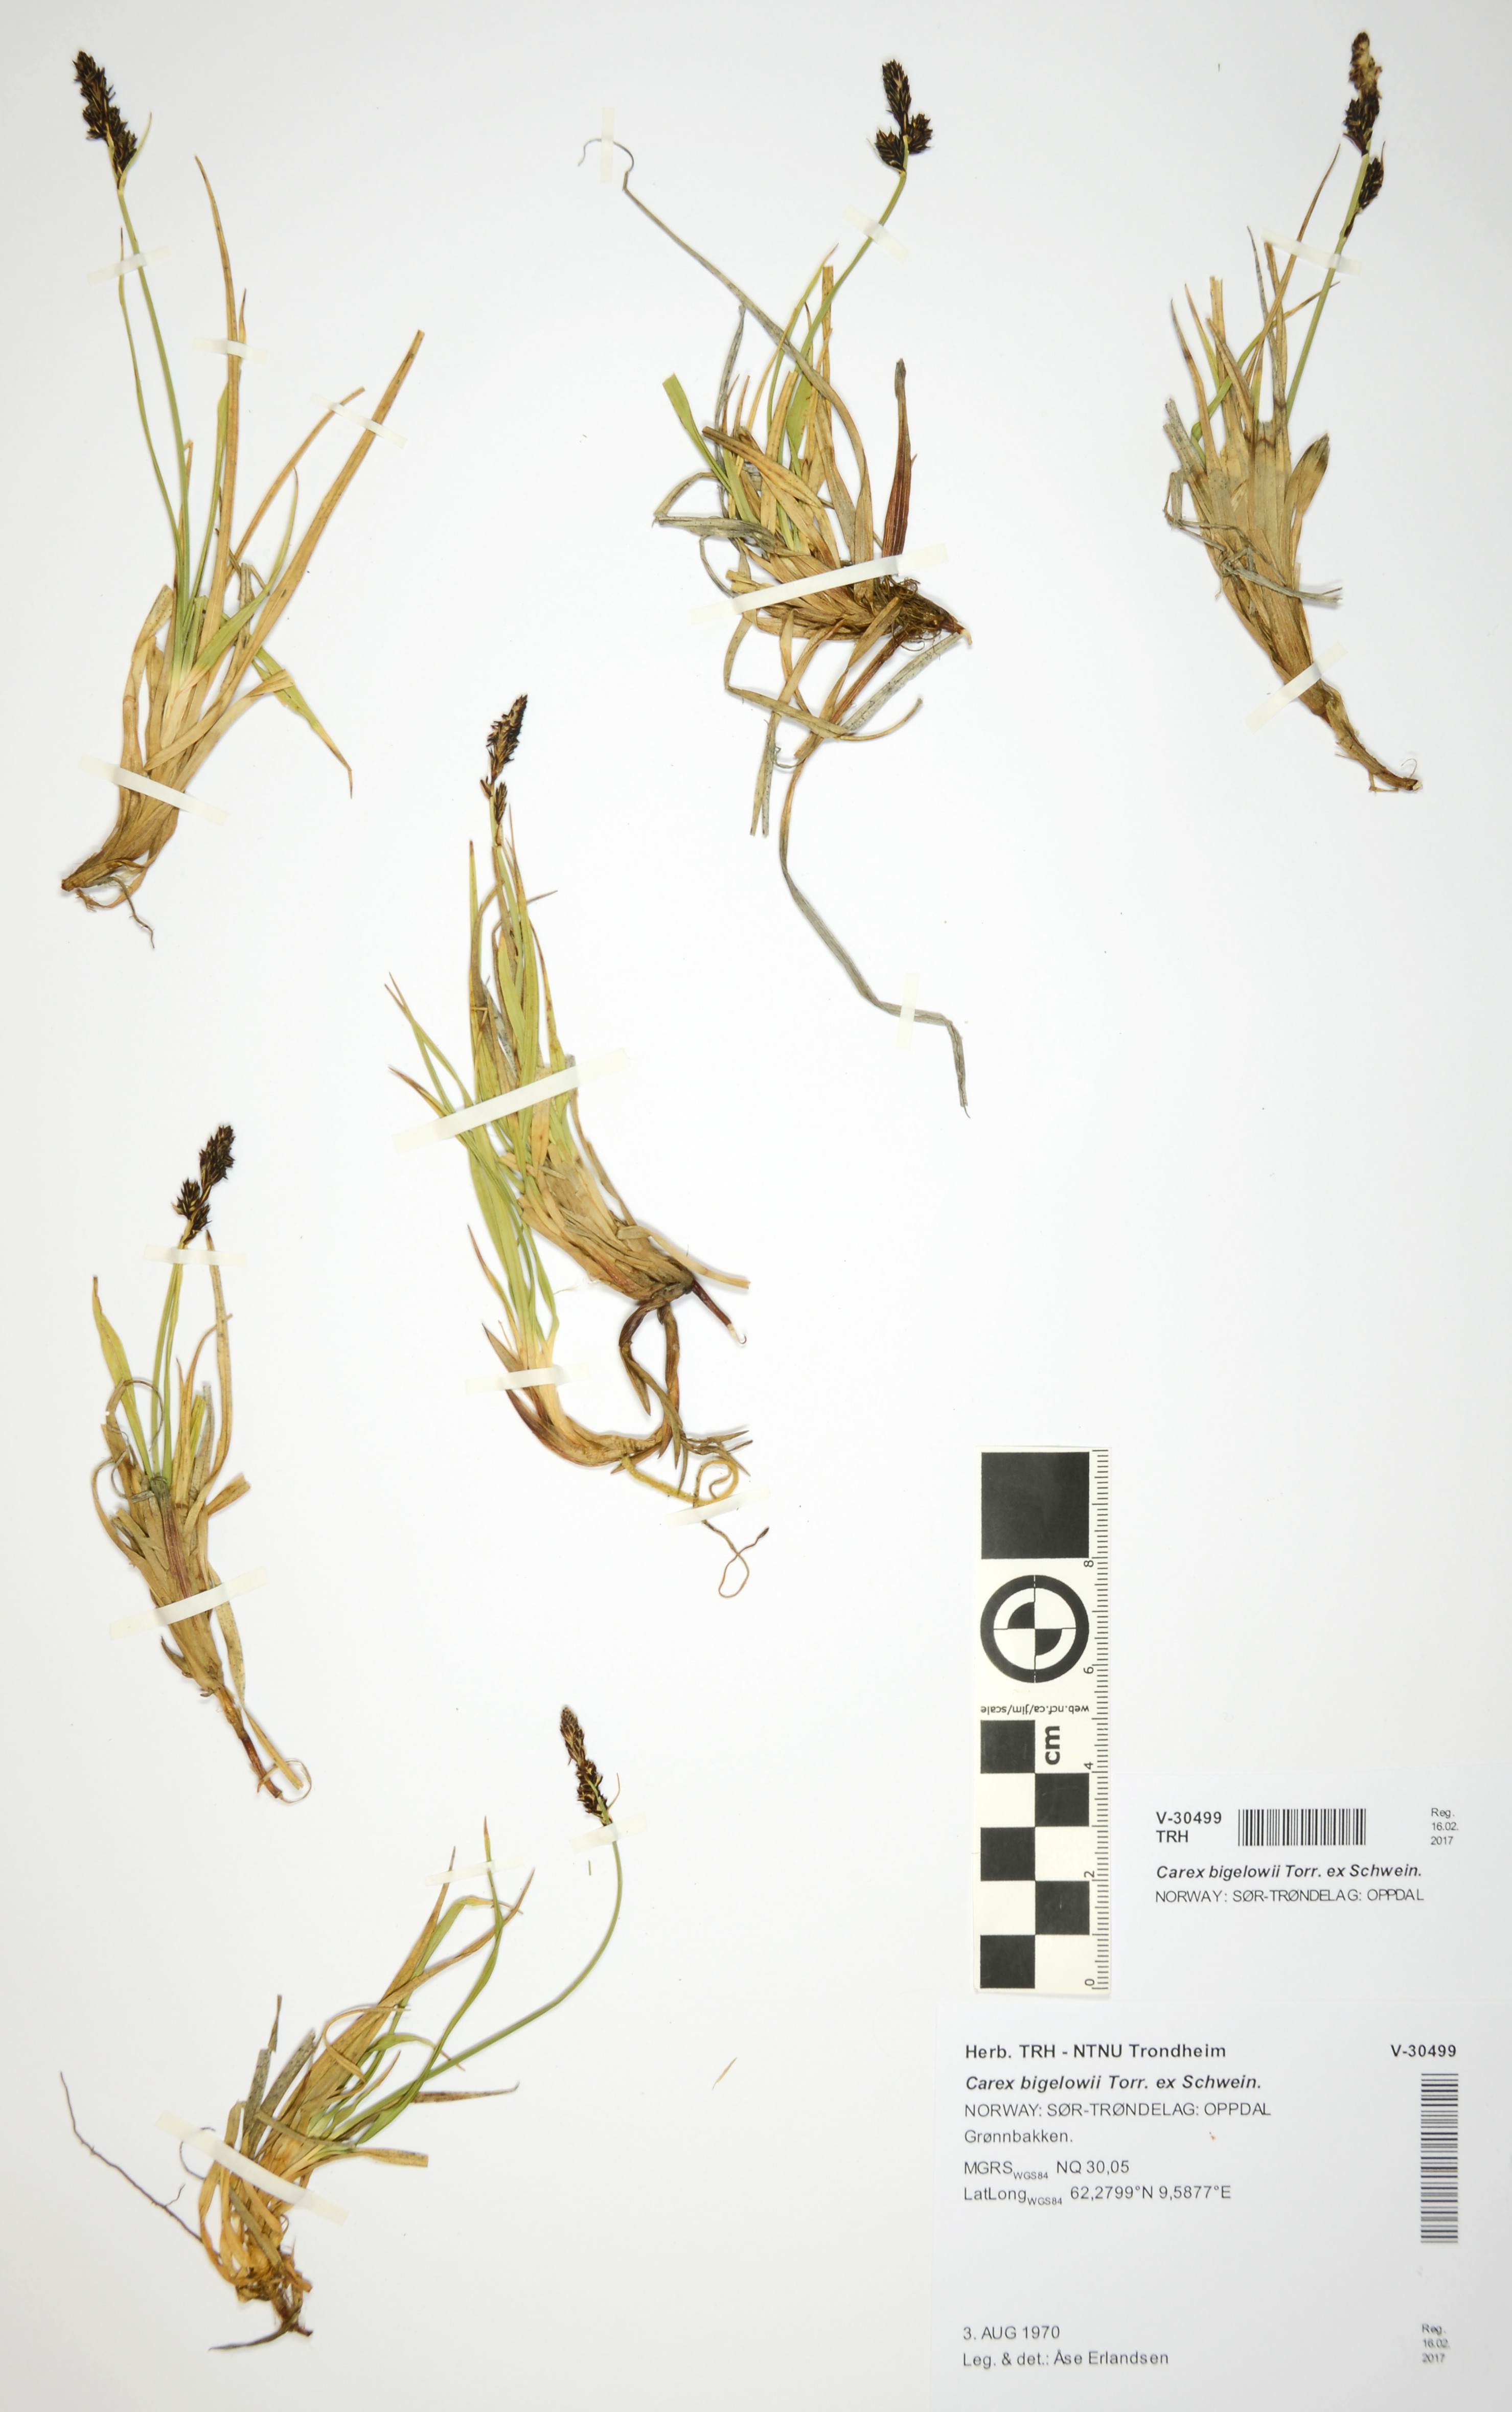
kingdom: Plantae
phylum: Tracheophyta
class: Liliopsida
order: Poales
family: Cyperaceae
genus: Carex
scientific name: Carex bigelowii
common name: Stiff sedge
